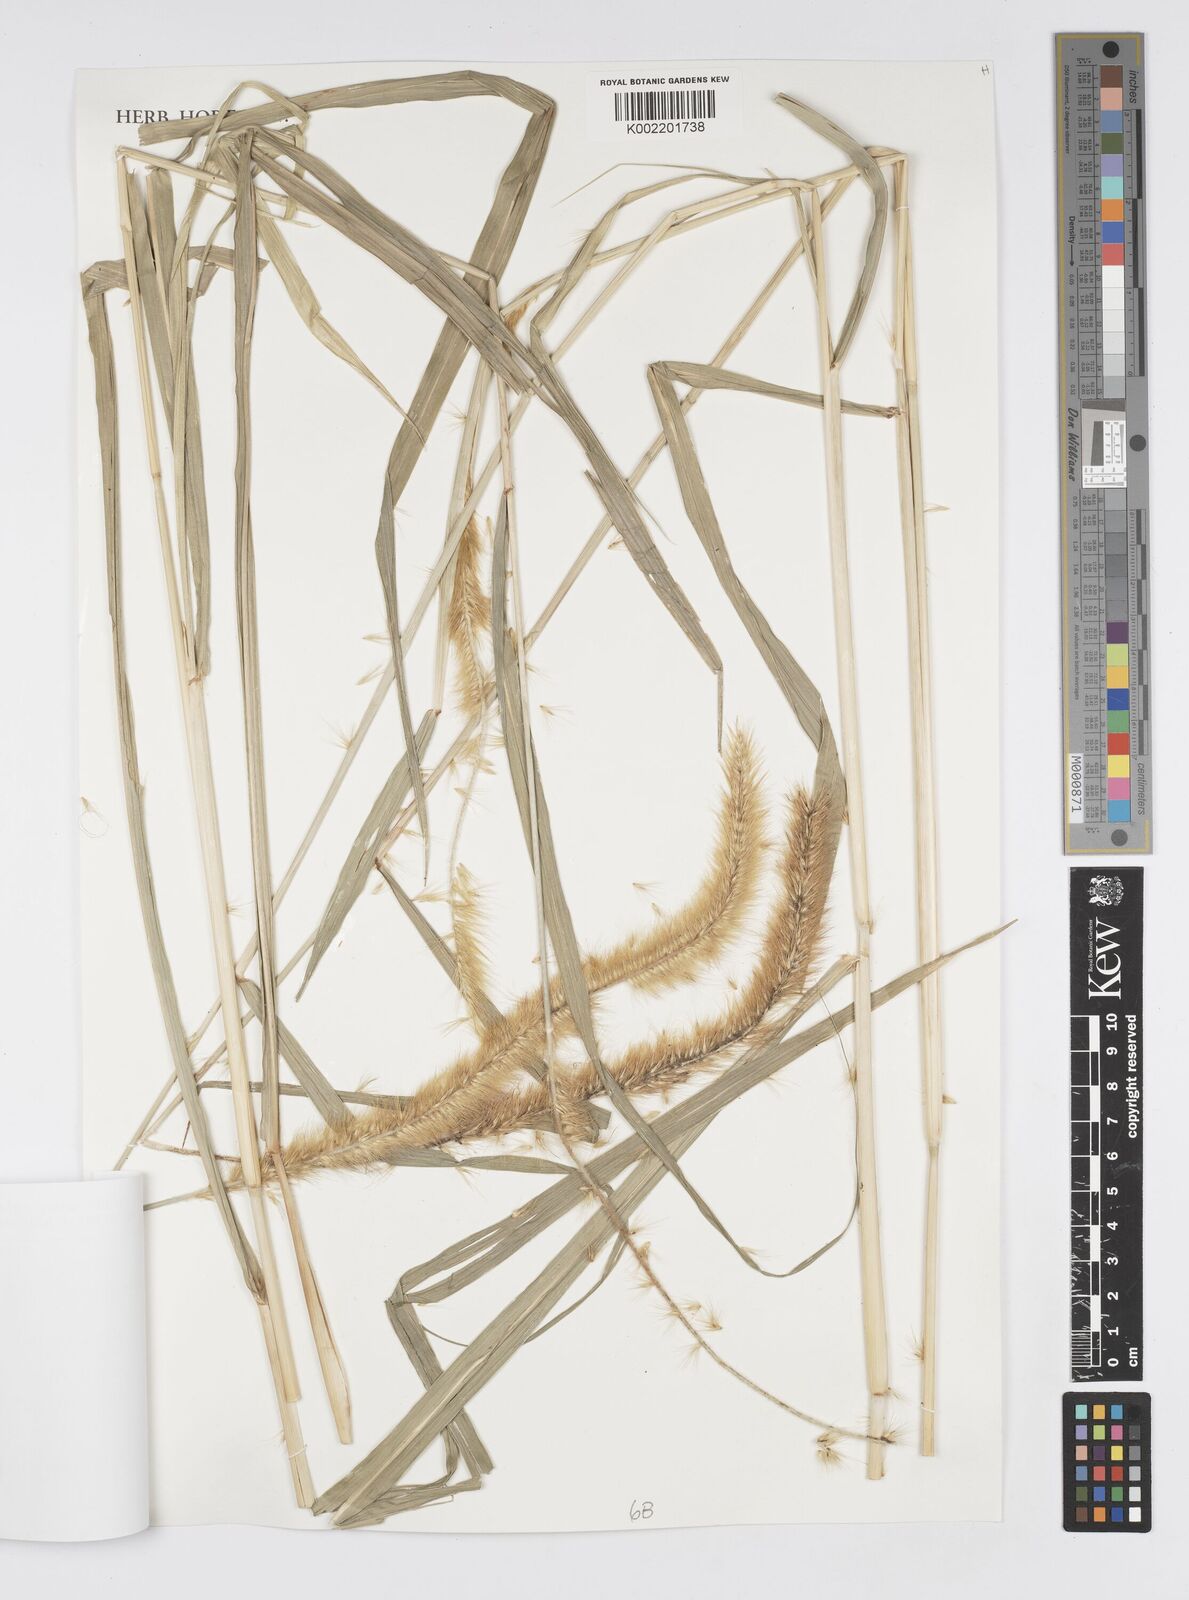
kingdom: Plantae
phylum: Tracheophyta
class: Liliopsida
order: Poales
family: Poaceae
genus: Cenchrus
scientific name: Cenchrus purpureus
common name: Elephant grass
